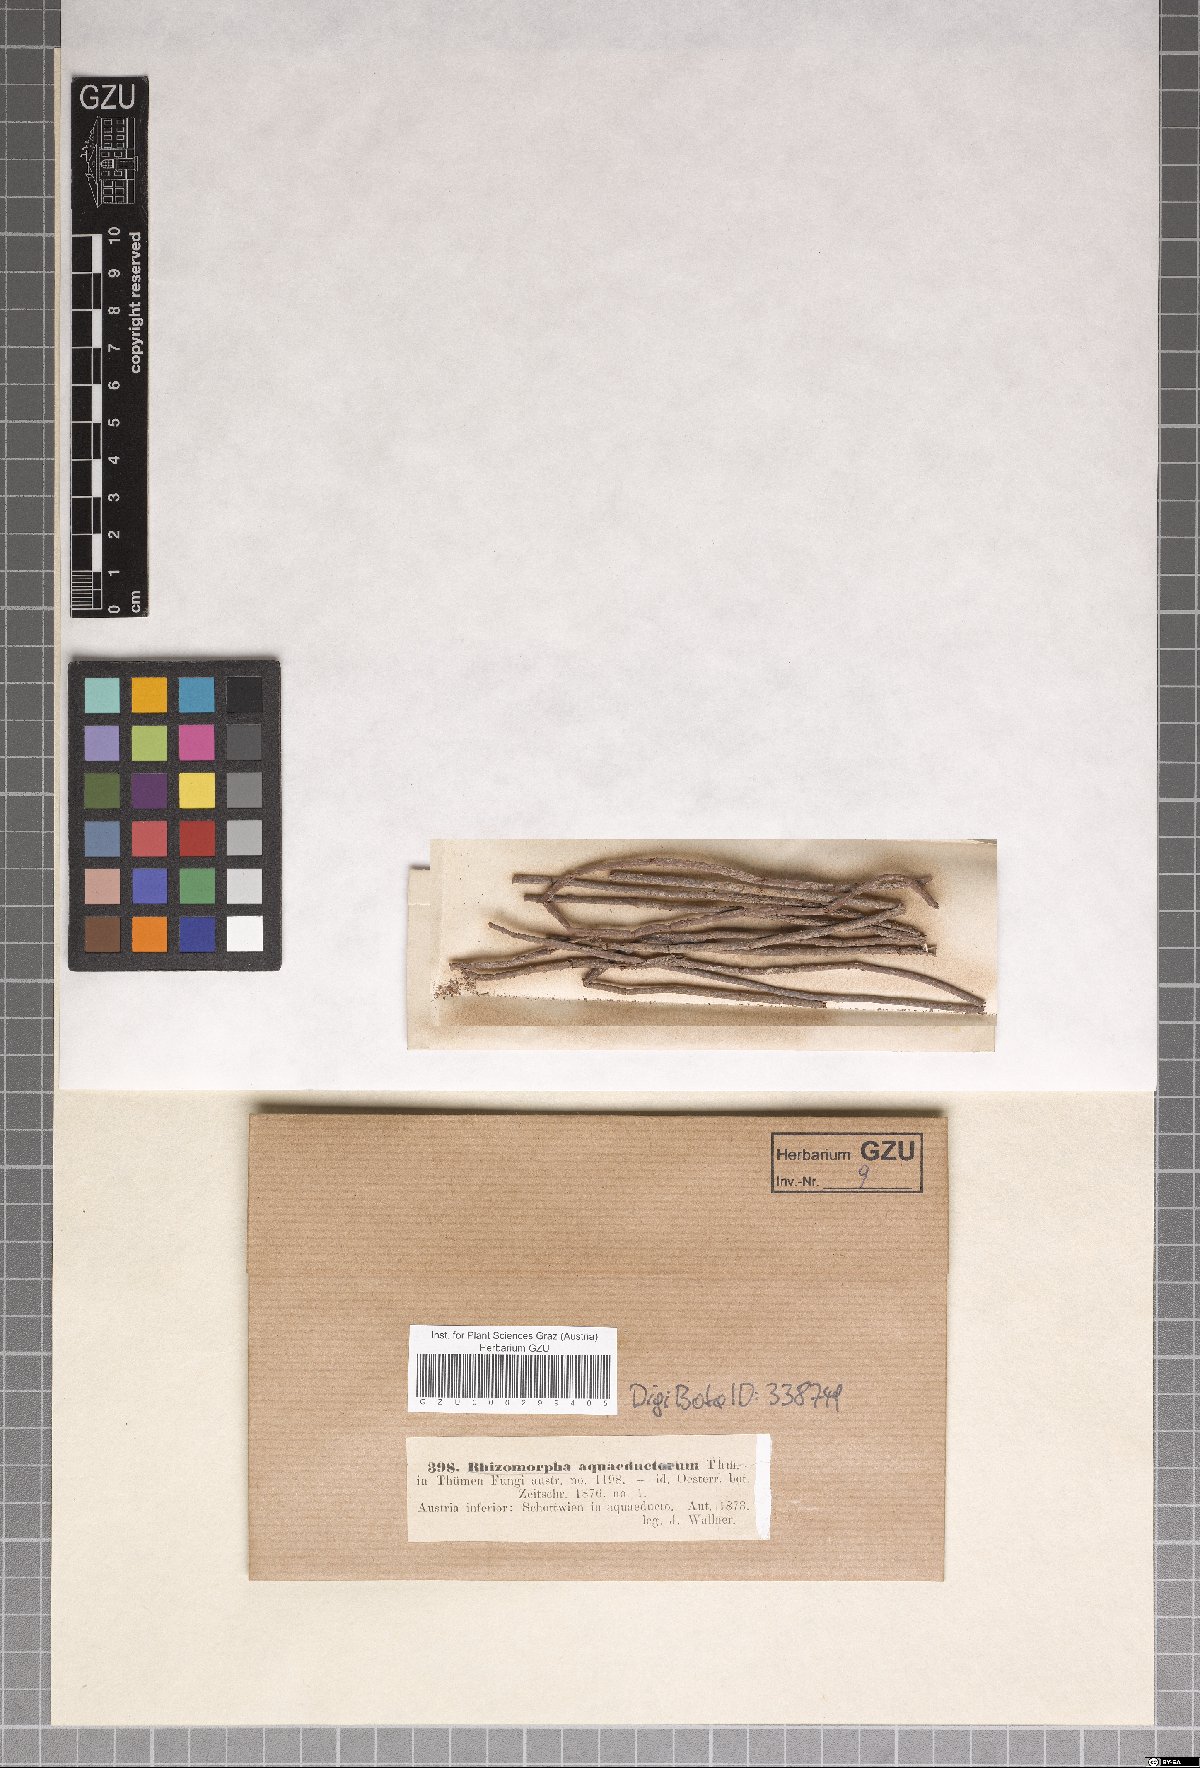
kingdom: Fungi
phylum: Basidiomycota
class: Agaricomycetes
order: Agaricales
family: Marasmiaceae
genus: Rhizomorpha
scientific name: Rhizomorpha
